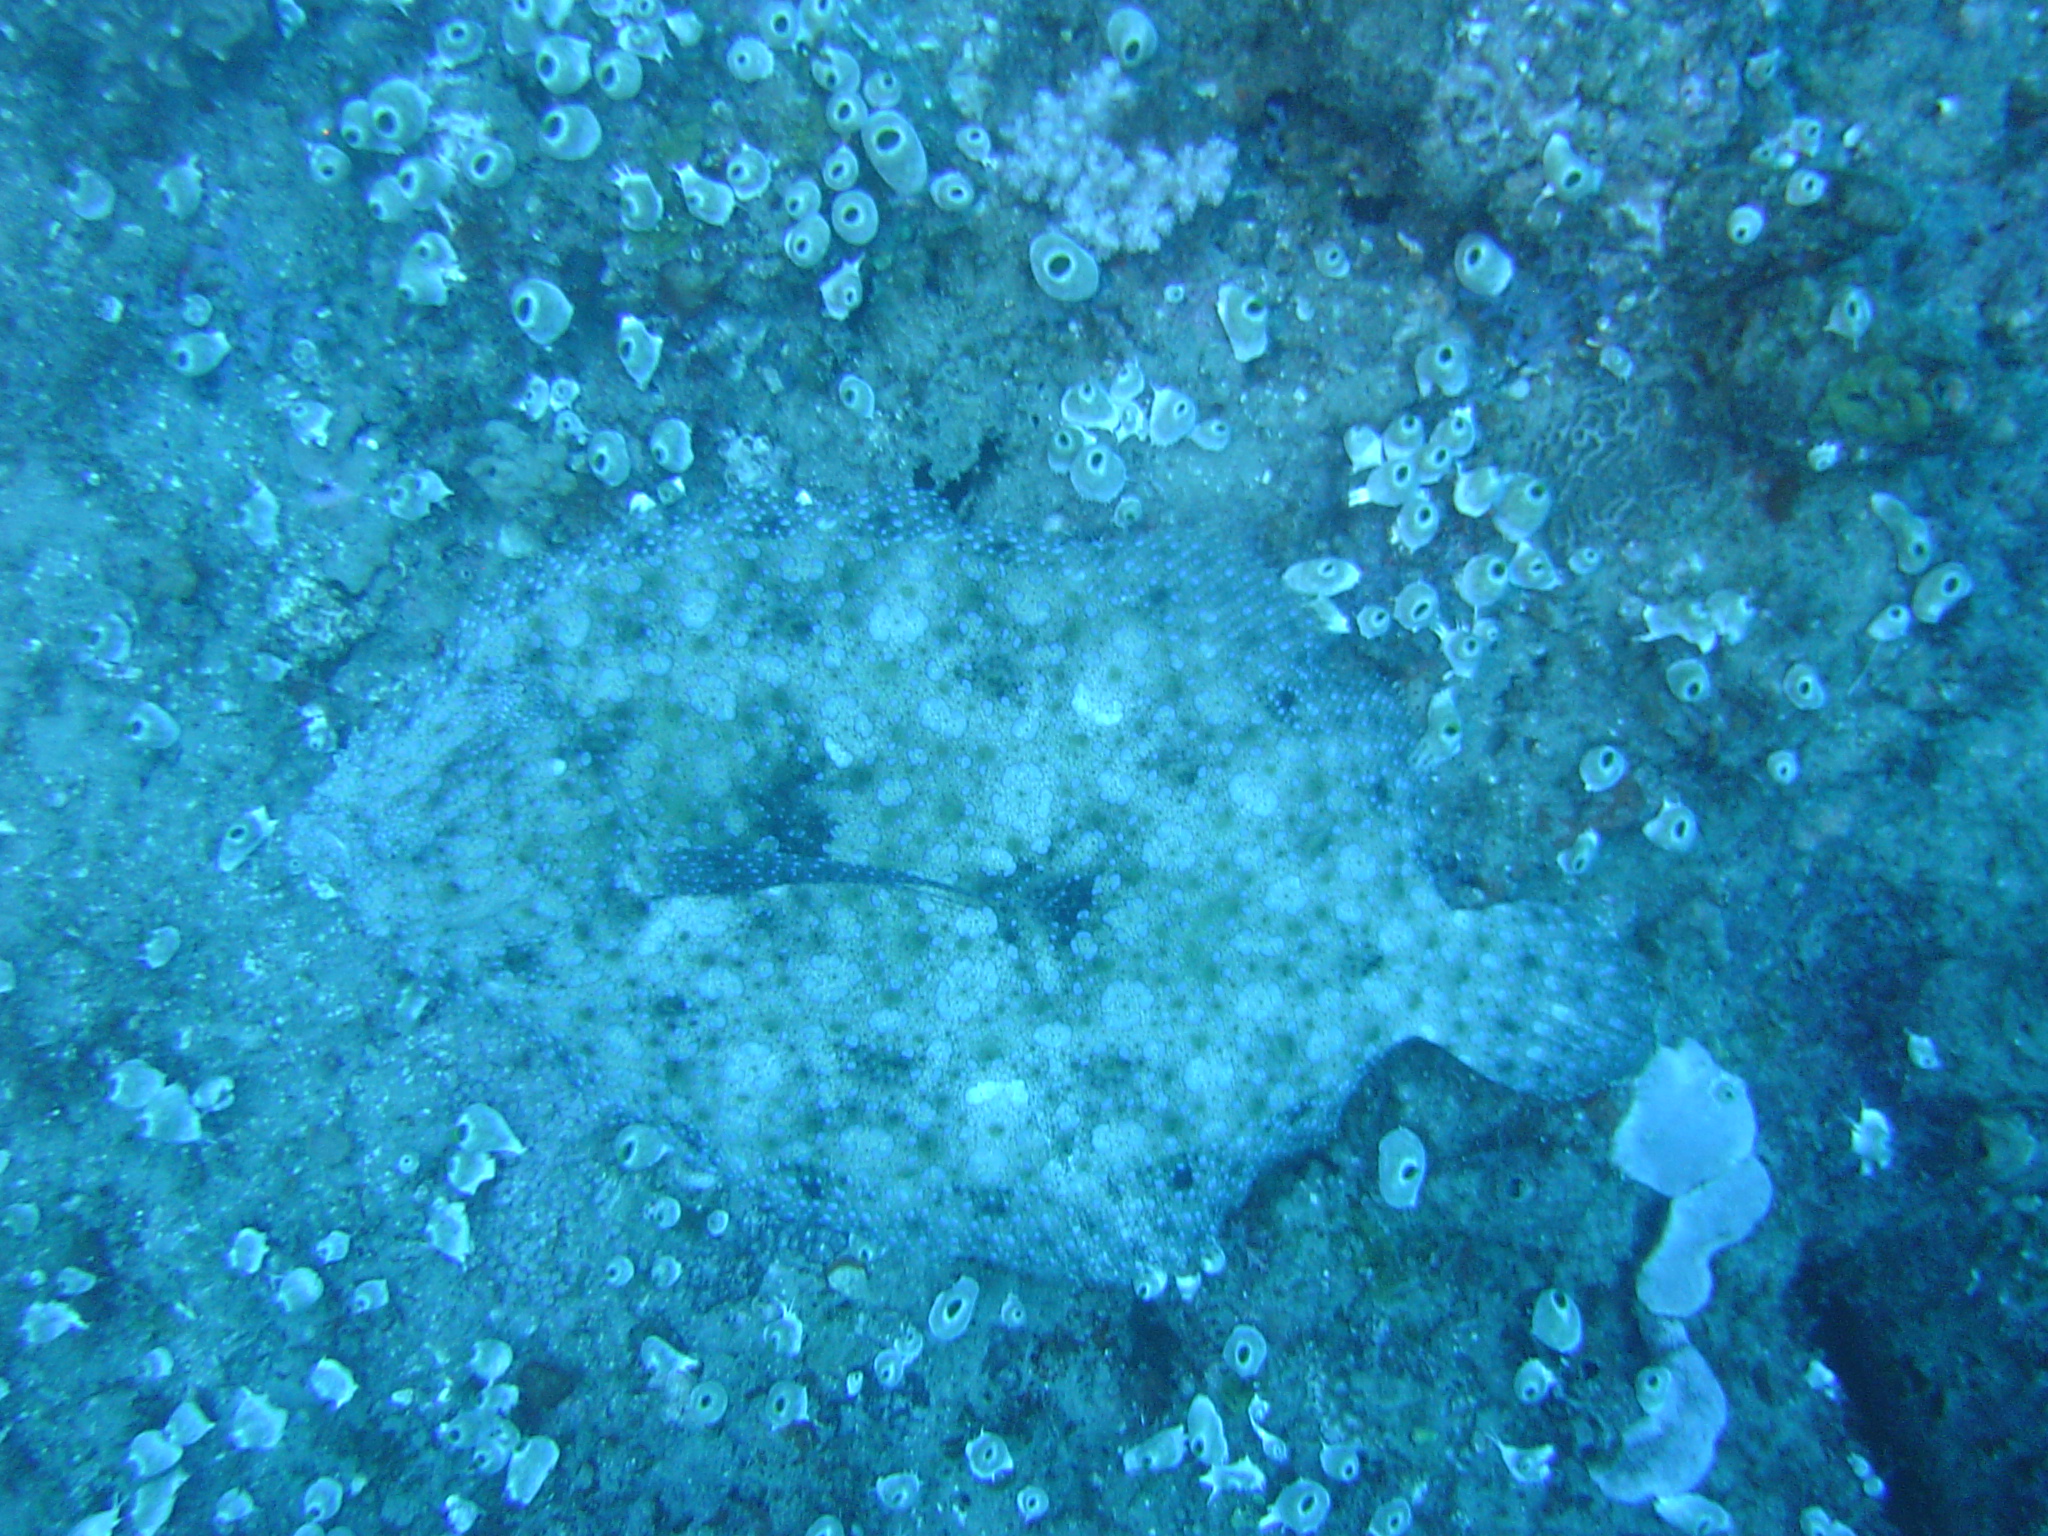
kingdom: Animalia
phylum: Chordata
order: Pleuronectiformes
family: Bothidae
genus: Bothus
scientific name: Bothus mancus
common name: Flowery flounder
